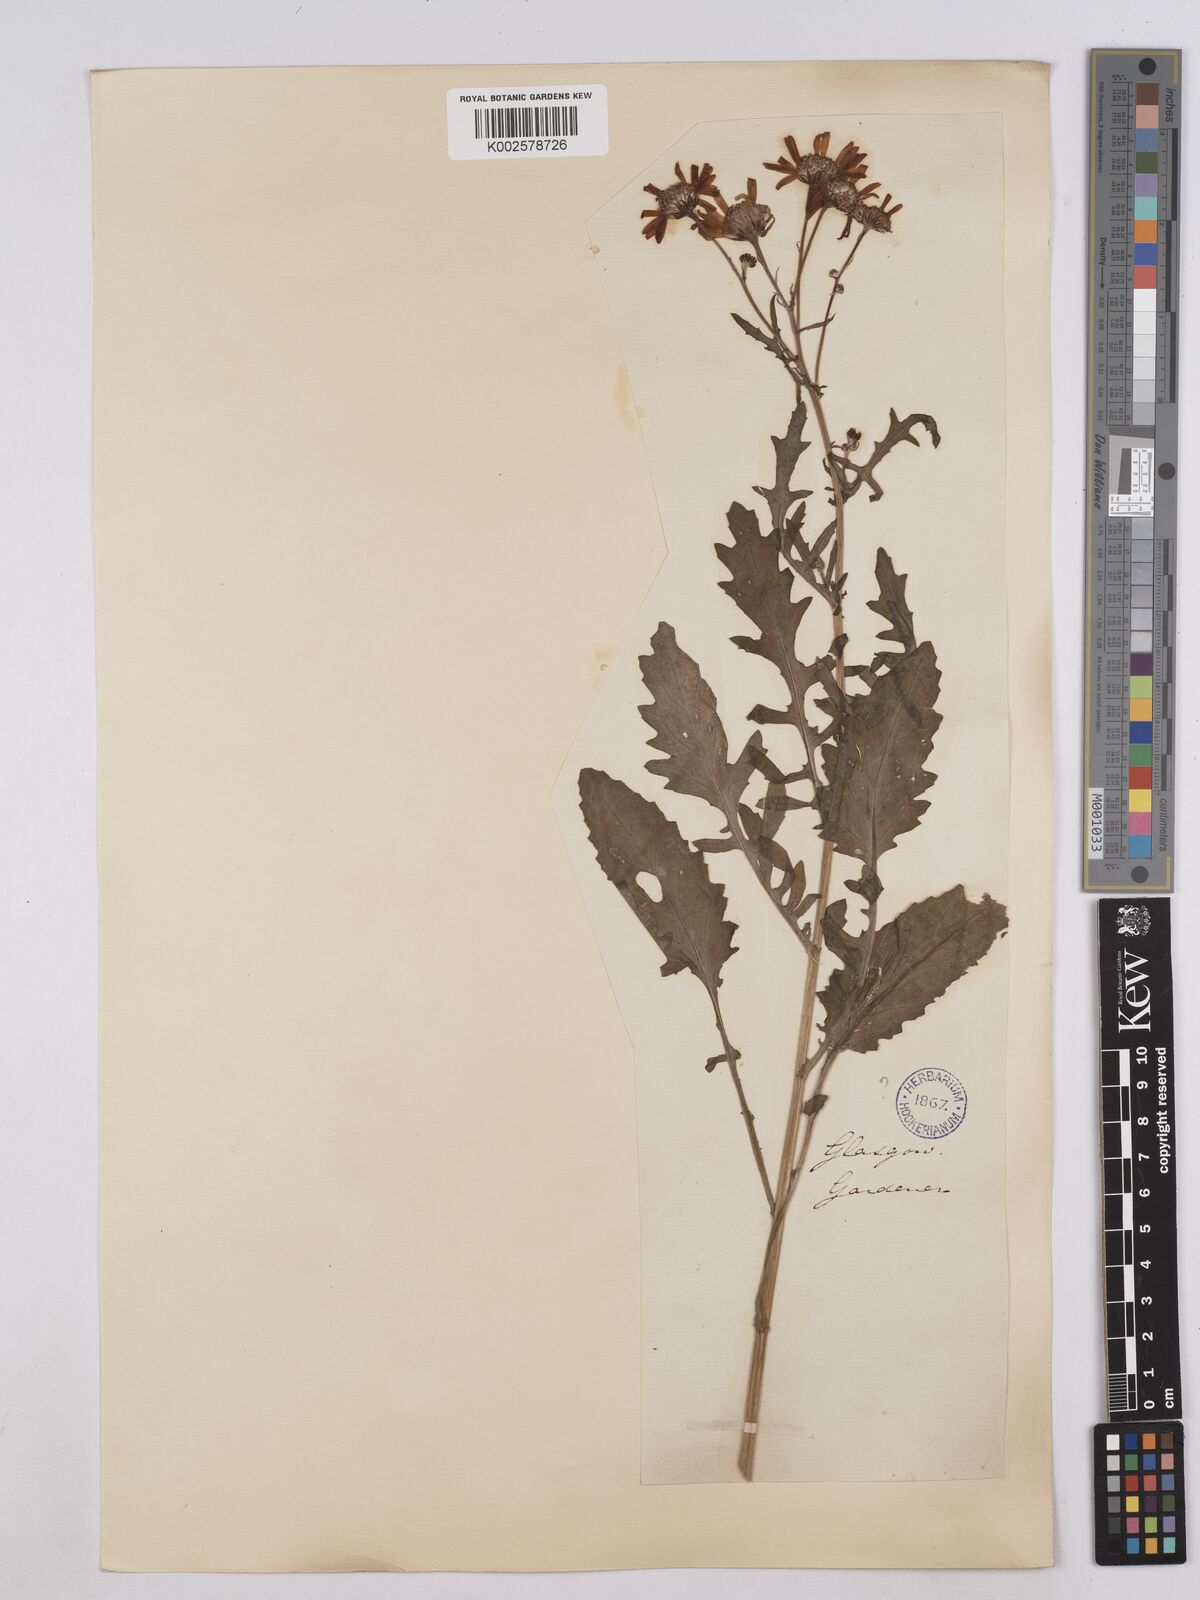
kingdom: Plantae
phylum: Tracheophyta
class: Magnoliopsida
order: Asterales
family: Asteraceae
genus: Jacobaea
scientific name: Jacobaea aquatica
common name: Water ragwort
